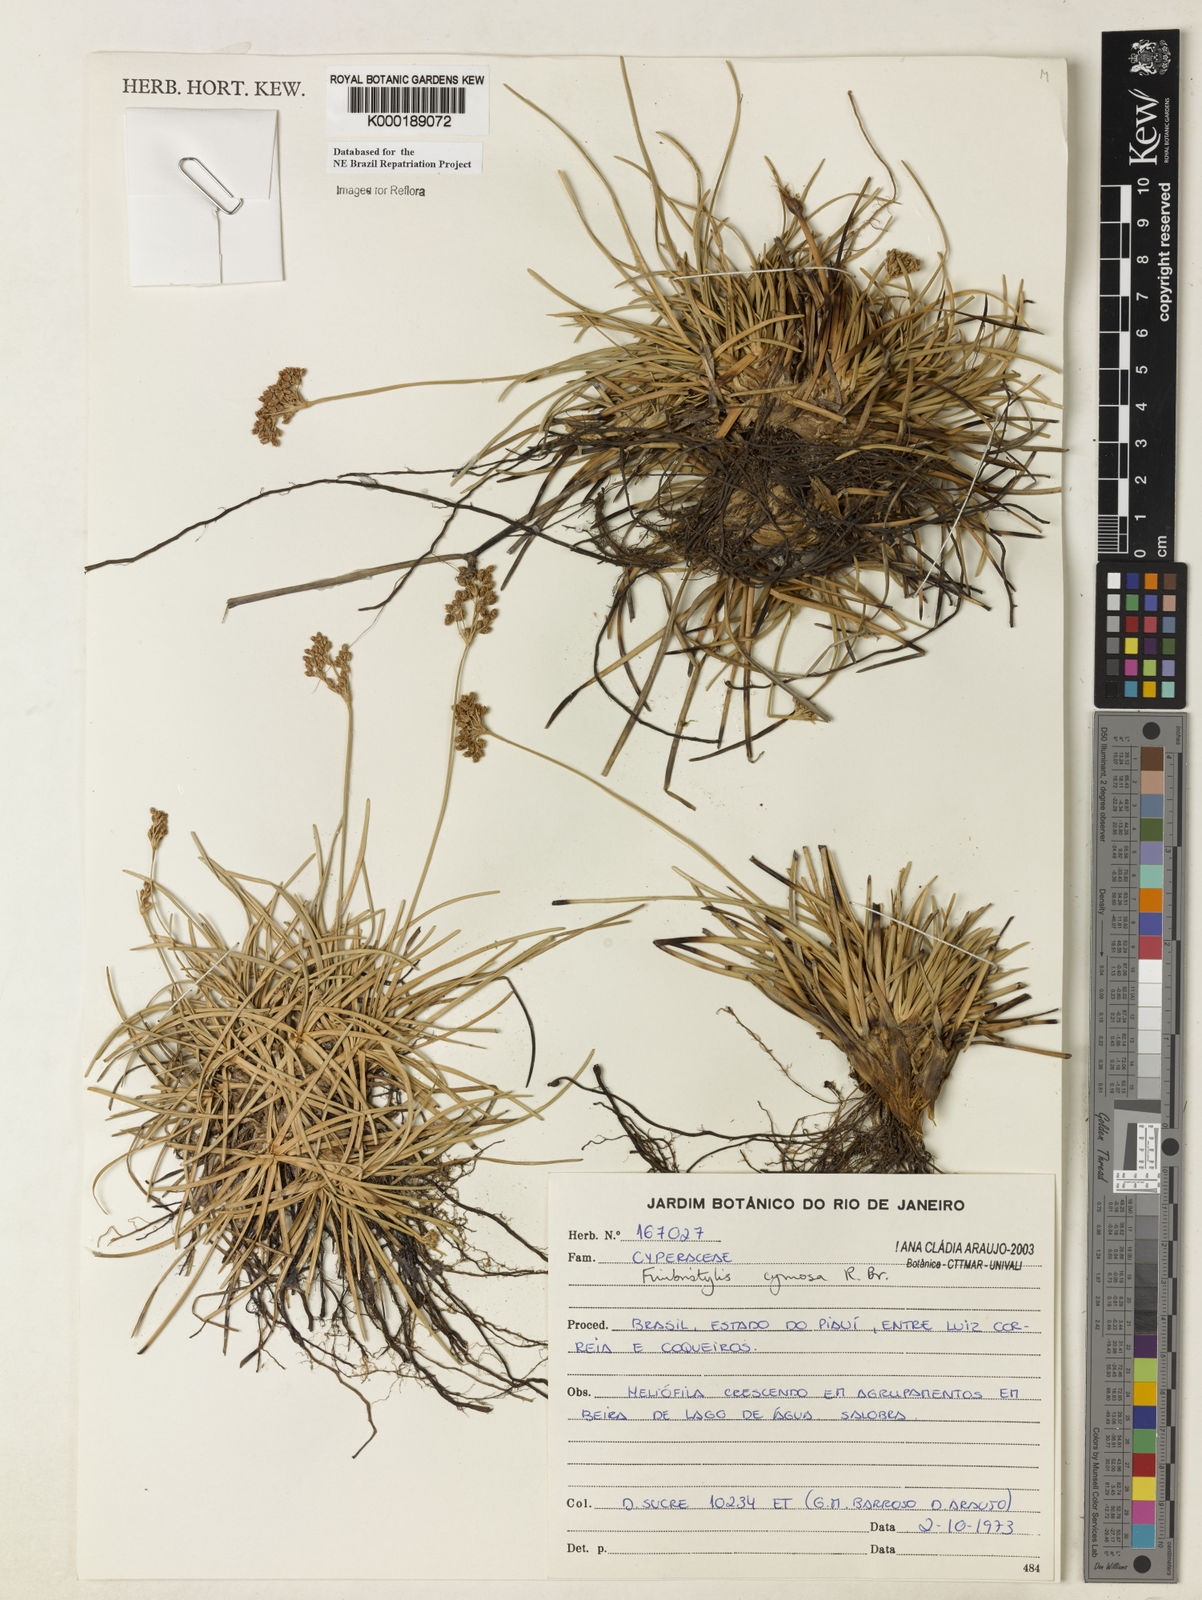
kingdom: Plantae
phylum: Tracheophyta
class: Liliopsida
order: Poales
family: Cyperaceae
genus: Fimbristylis
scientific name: Fimbristylis cymosa
